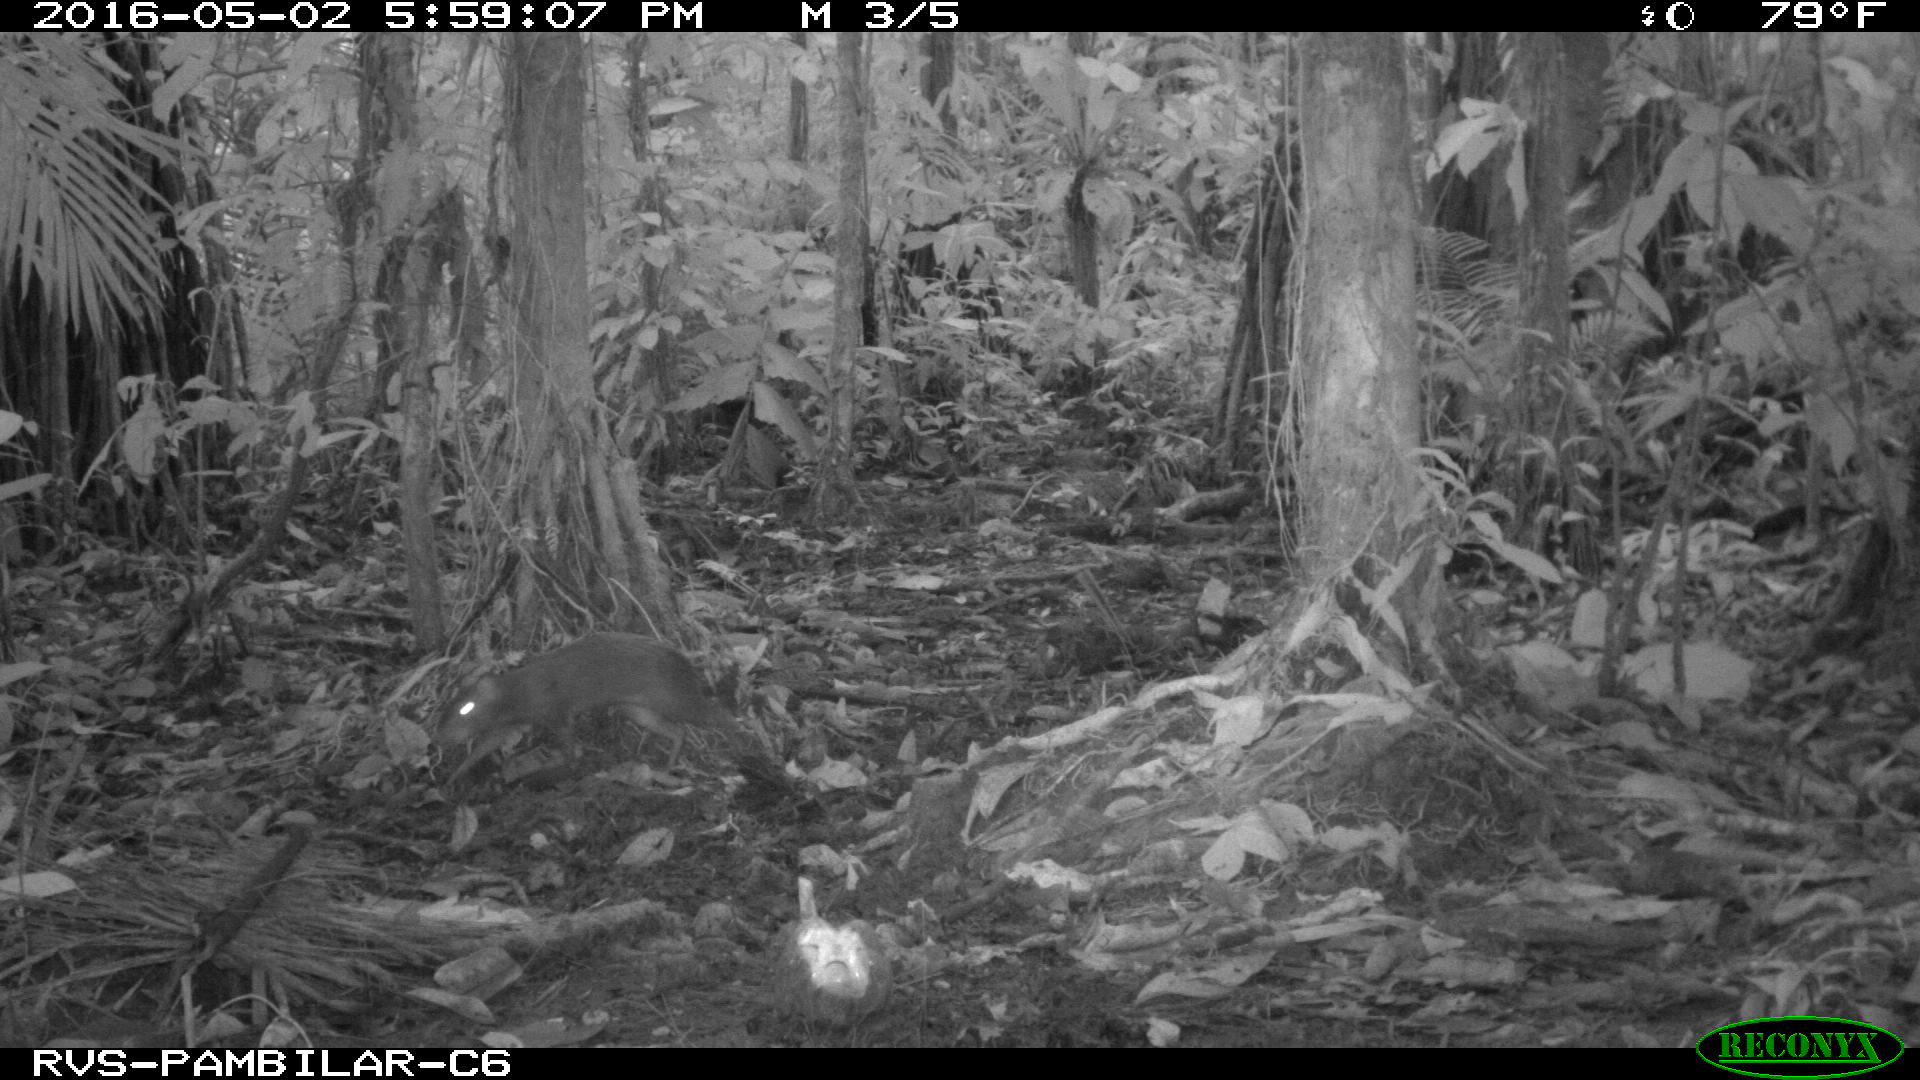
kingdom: Animalia
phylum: Chordata
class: Mammalia
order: Rodentia
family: Dasyproctidae
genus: Dasyprocta
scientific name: Dasyprocta punctata
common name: Central american agouti
